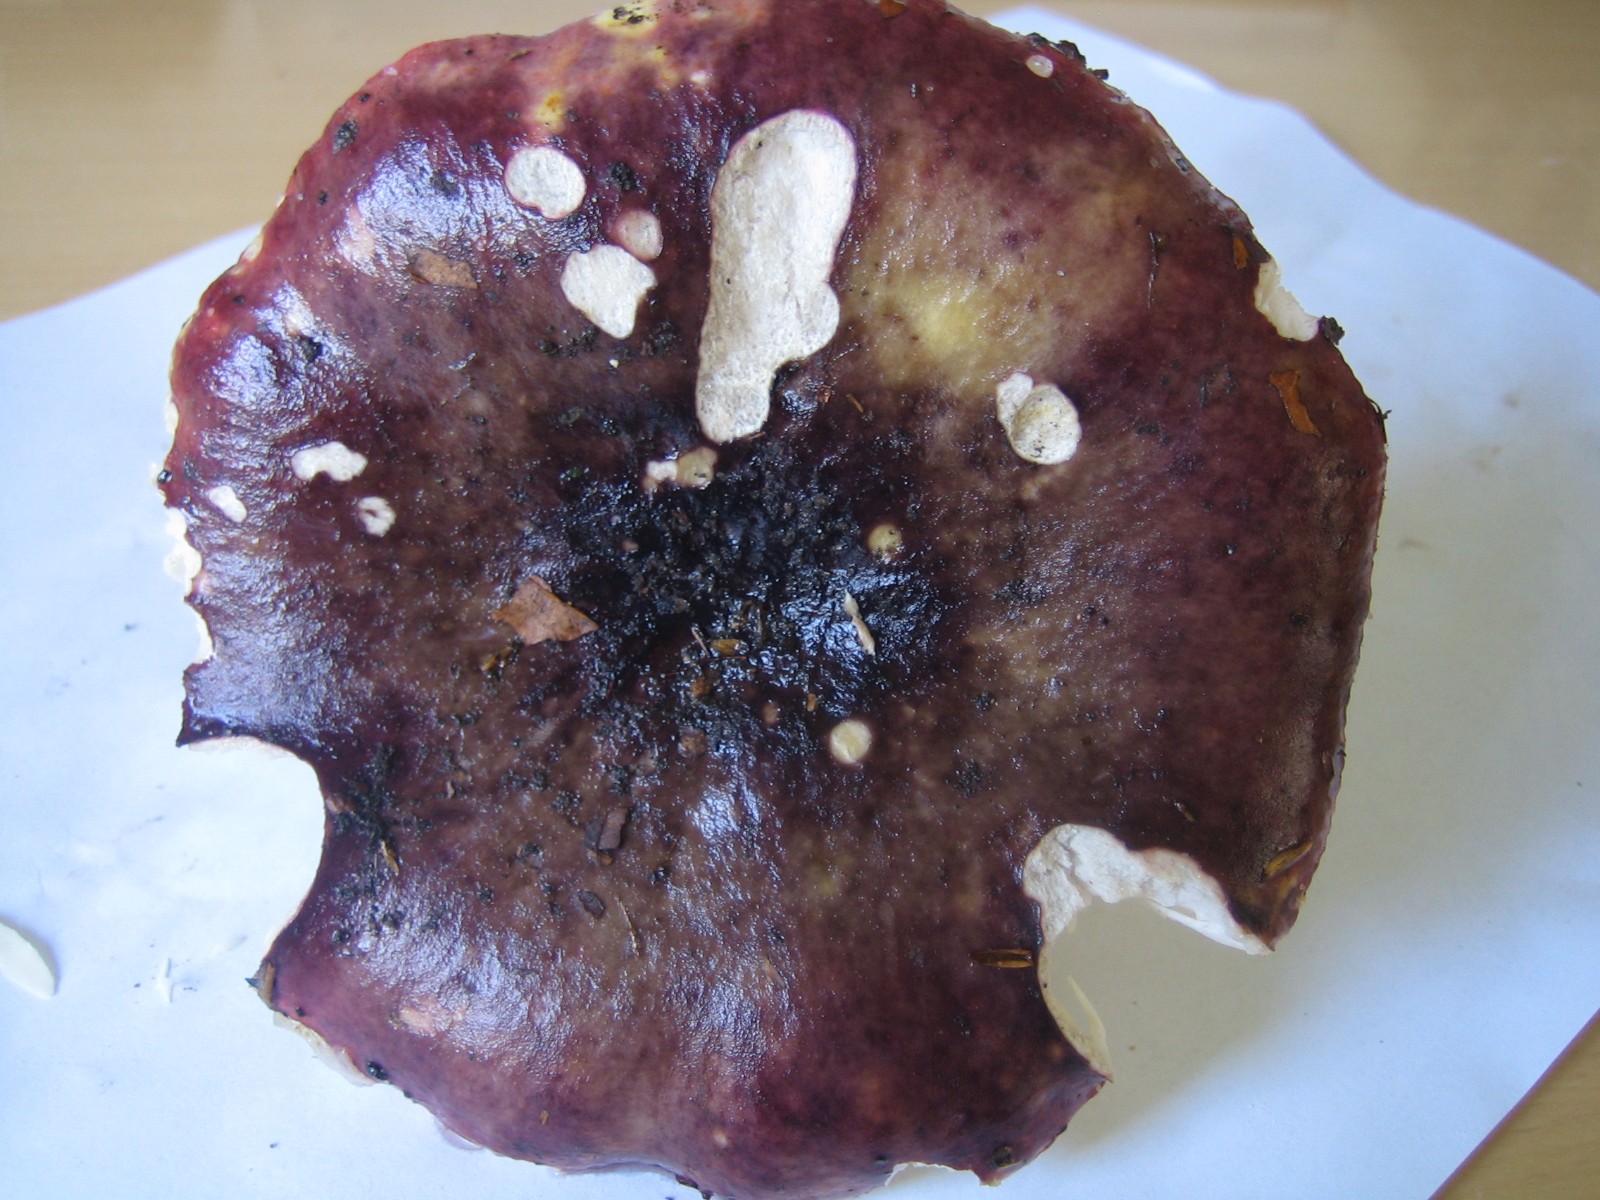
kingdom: Fungi
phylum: Basidiomycota
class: Agaricomycetes
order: Russulales
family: Russulaceae
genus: Russula
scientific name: Russula atropurpurea
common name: purpurbroget skørhat
